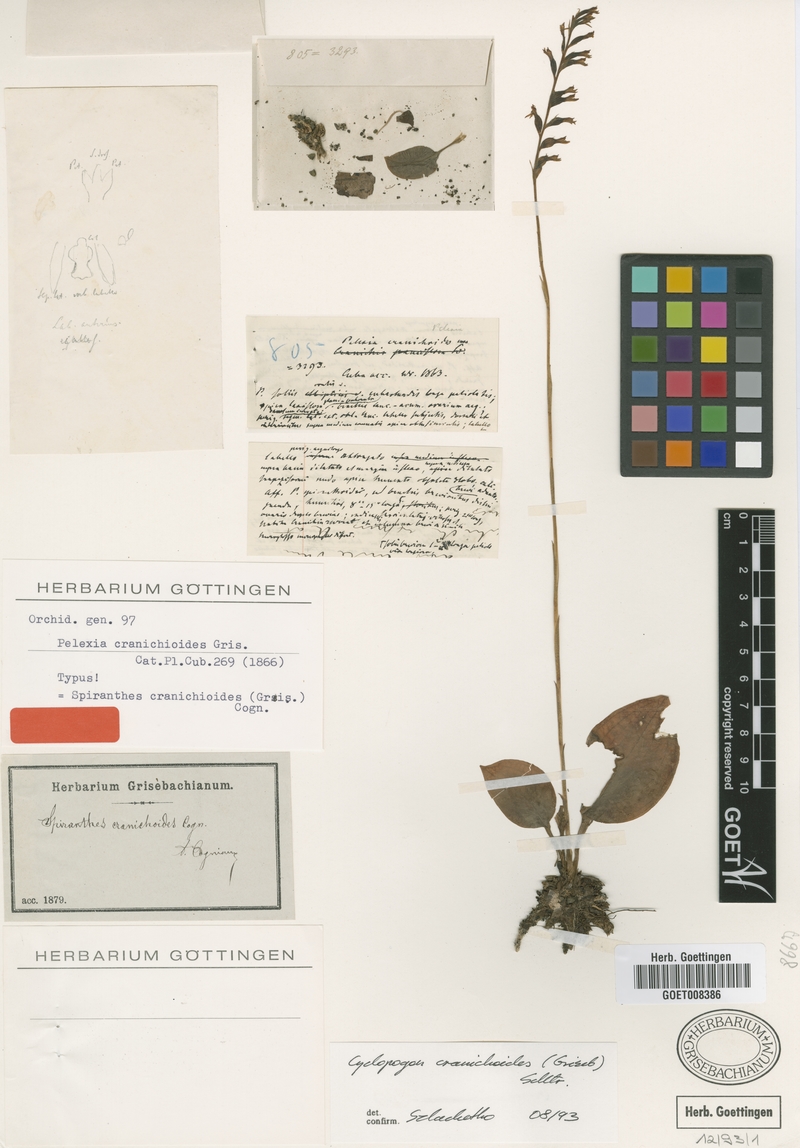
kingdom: Plantae
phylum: Tracheophyta
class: Liliopsida
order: Asparagales
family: Orchidaceae
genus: Cyclopogon
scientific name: Cyclopogon cranichoides
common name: Green ladies' tresses
